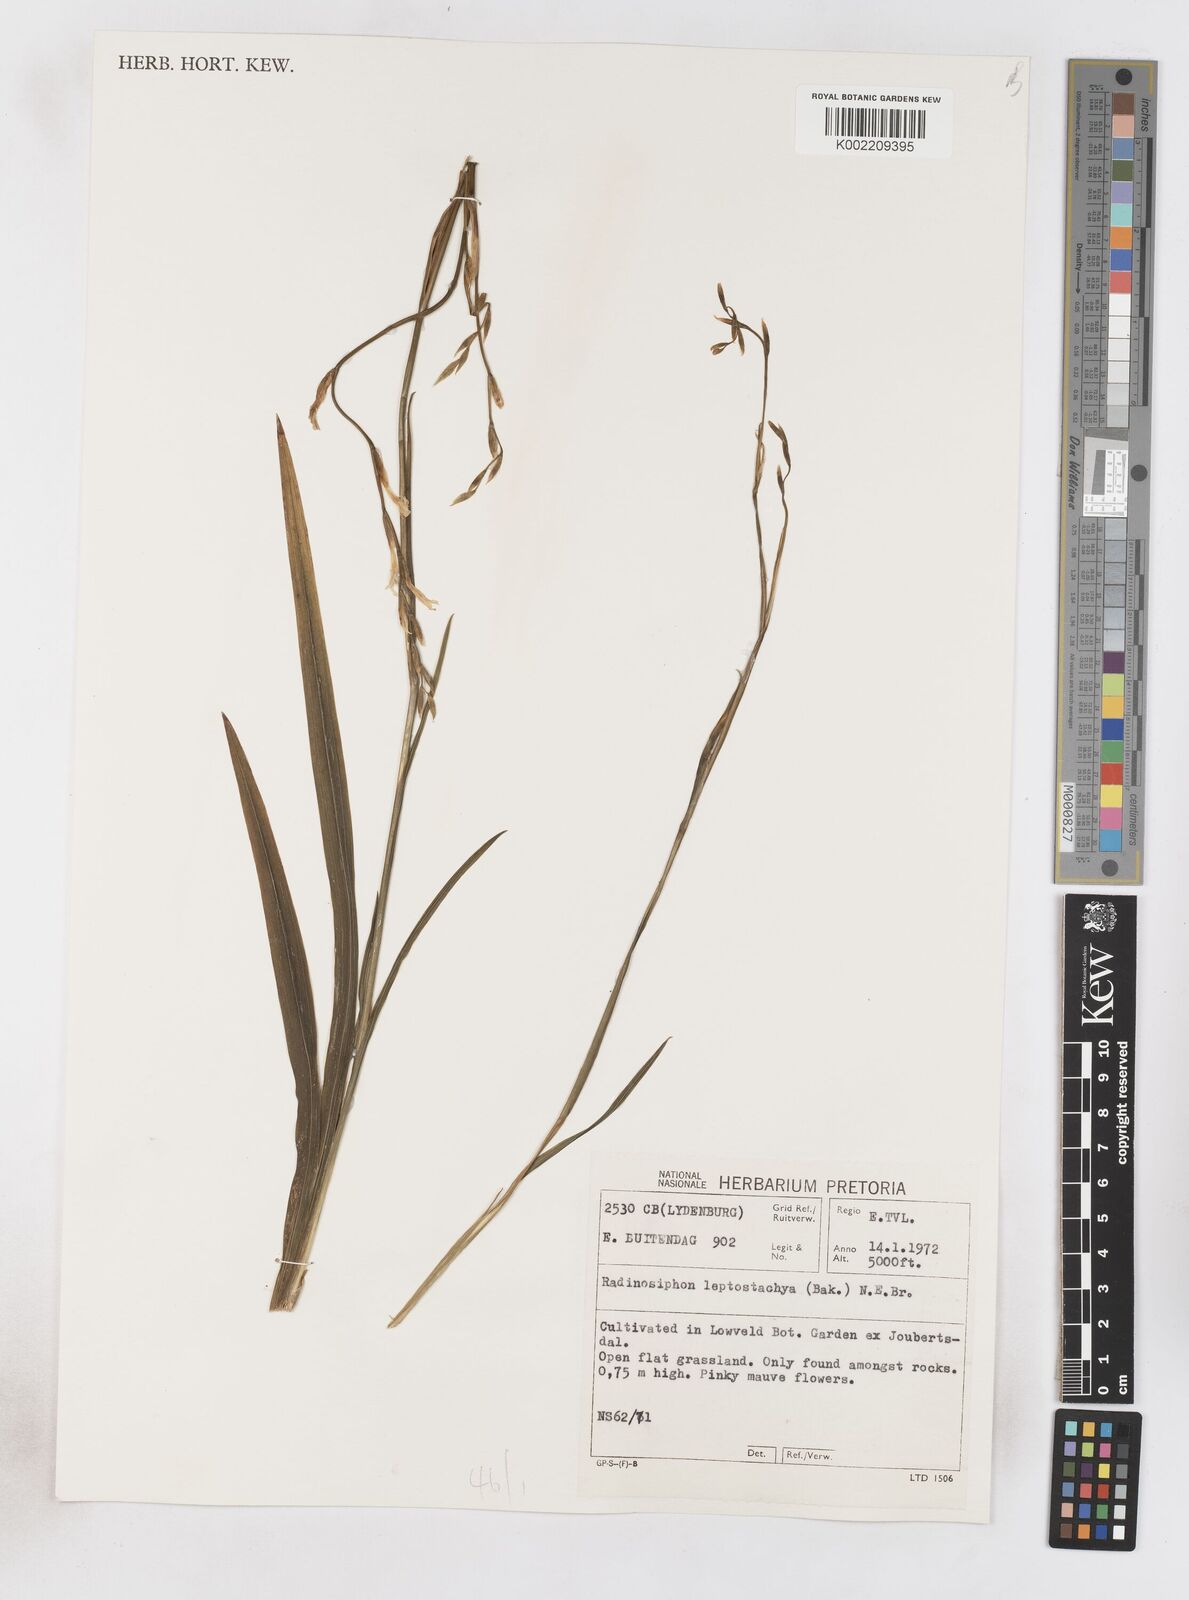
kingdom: Plantae
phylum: Tracheophyta
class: Liliopsida
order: Asparagales
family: Iridaceae
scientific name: Iridaceae
